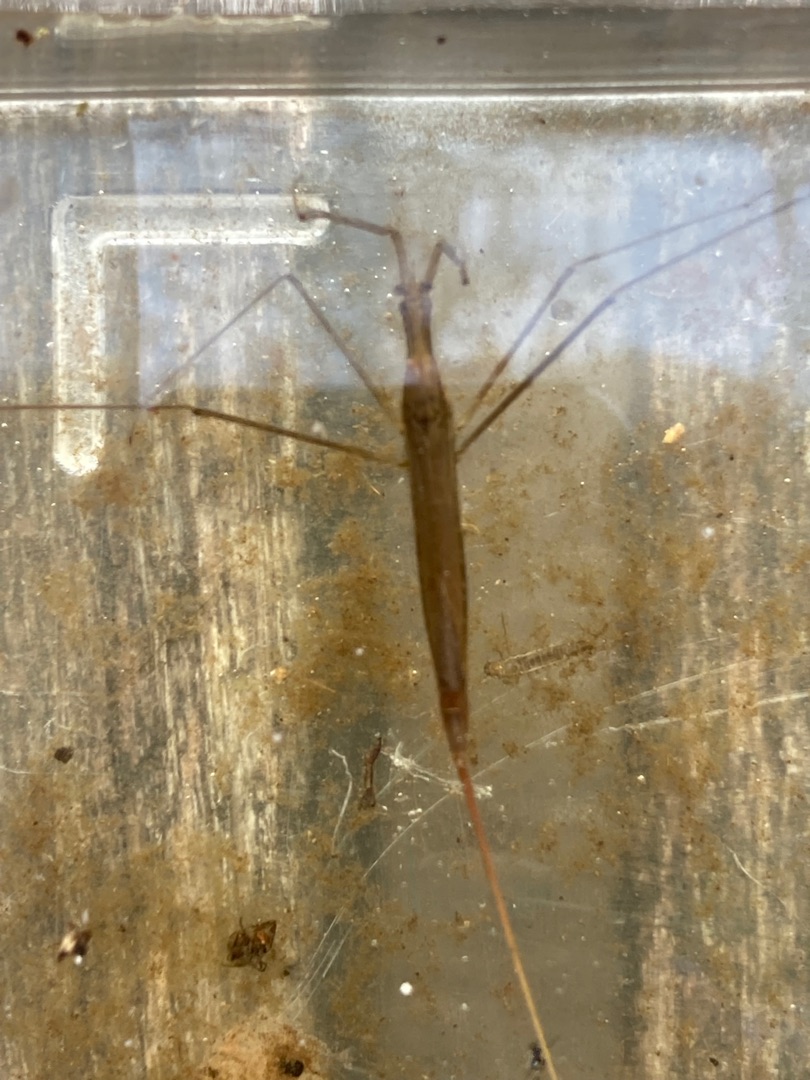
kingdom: Animalia
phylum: Arthropoda
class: Insecta
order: Hemiptera
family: Nepidae
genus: Ranatra
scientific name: Ranatra linearis
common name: Stavtæge
